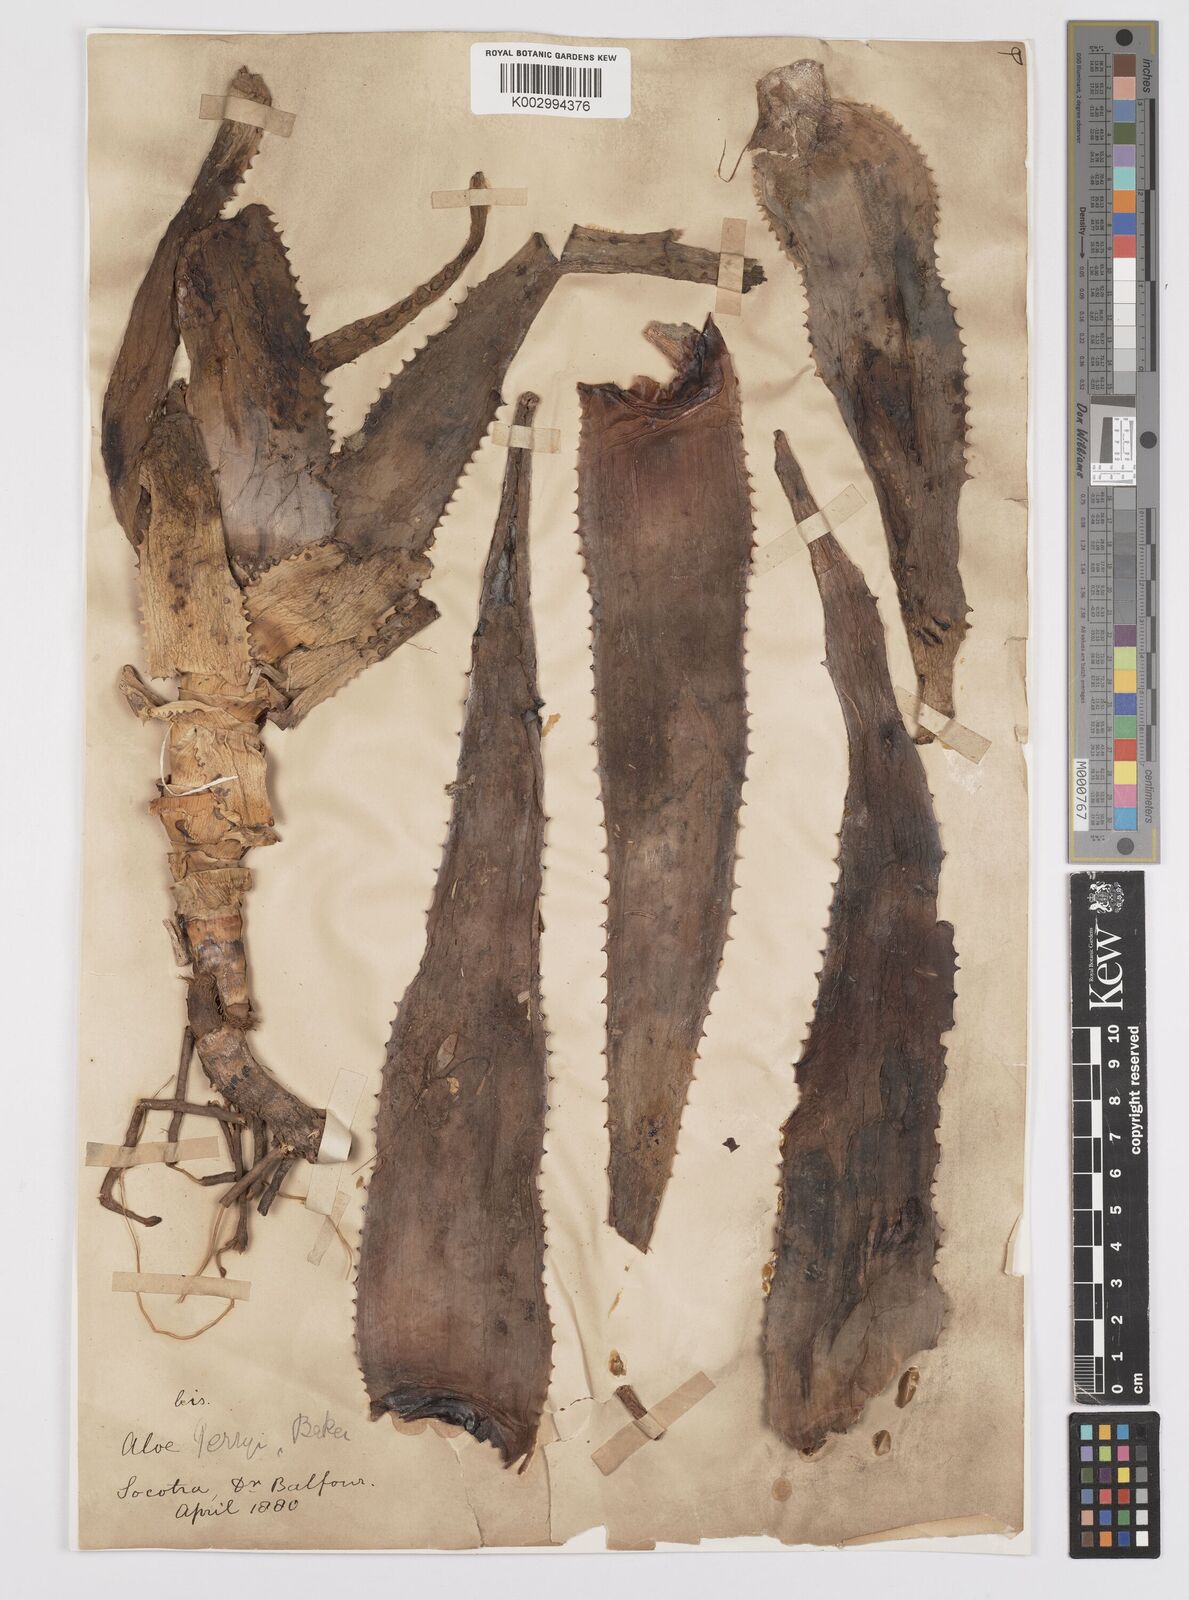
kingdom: Plantae
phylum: Tracheophyta
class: Liliopsida
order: Asparagales
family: Asphodelaceae
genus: Aloe
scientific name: Aloe perryi
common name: Socotrine aloe
